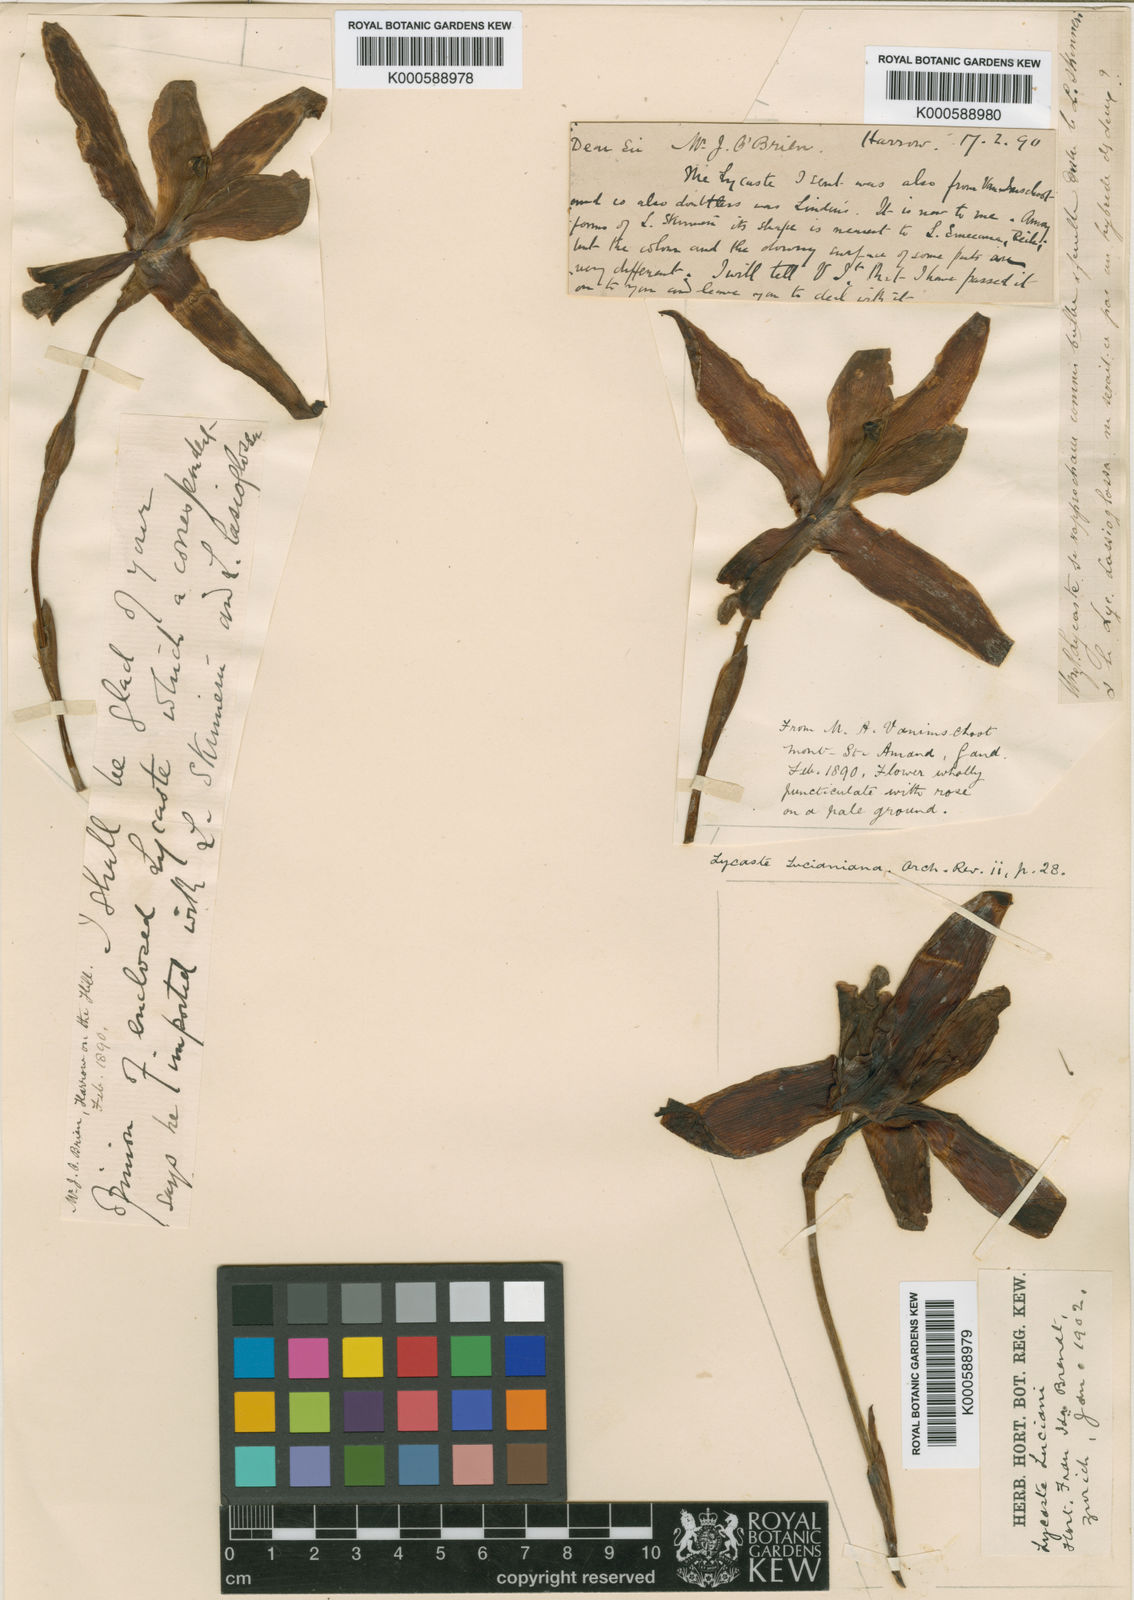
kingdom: Plantae
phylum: Tracheophyta
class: Liliopsida
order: Asparagales
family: Orchidaceae
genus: Lycaste
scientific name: Lycaste lucianiana
